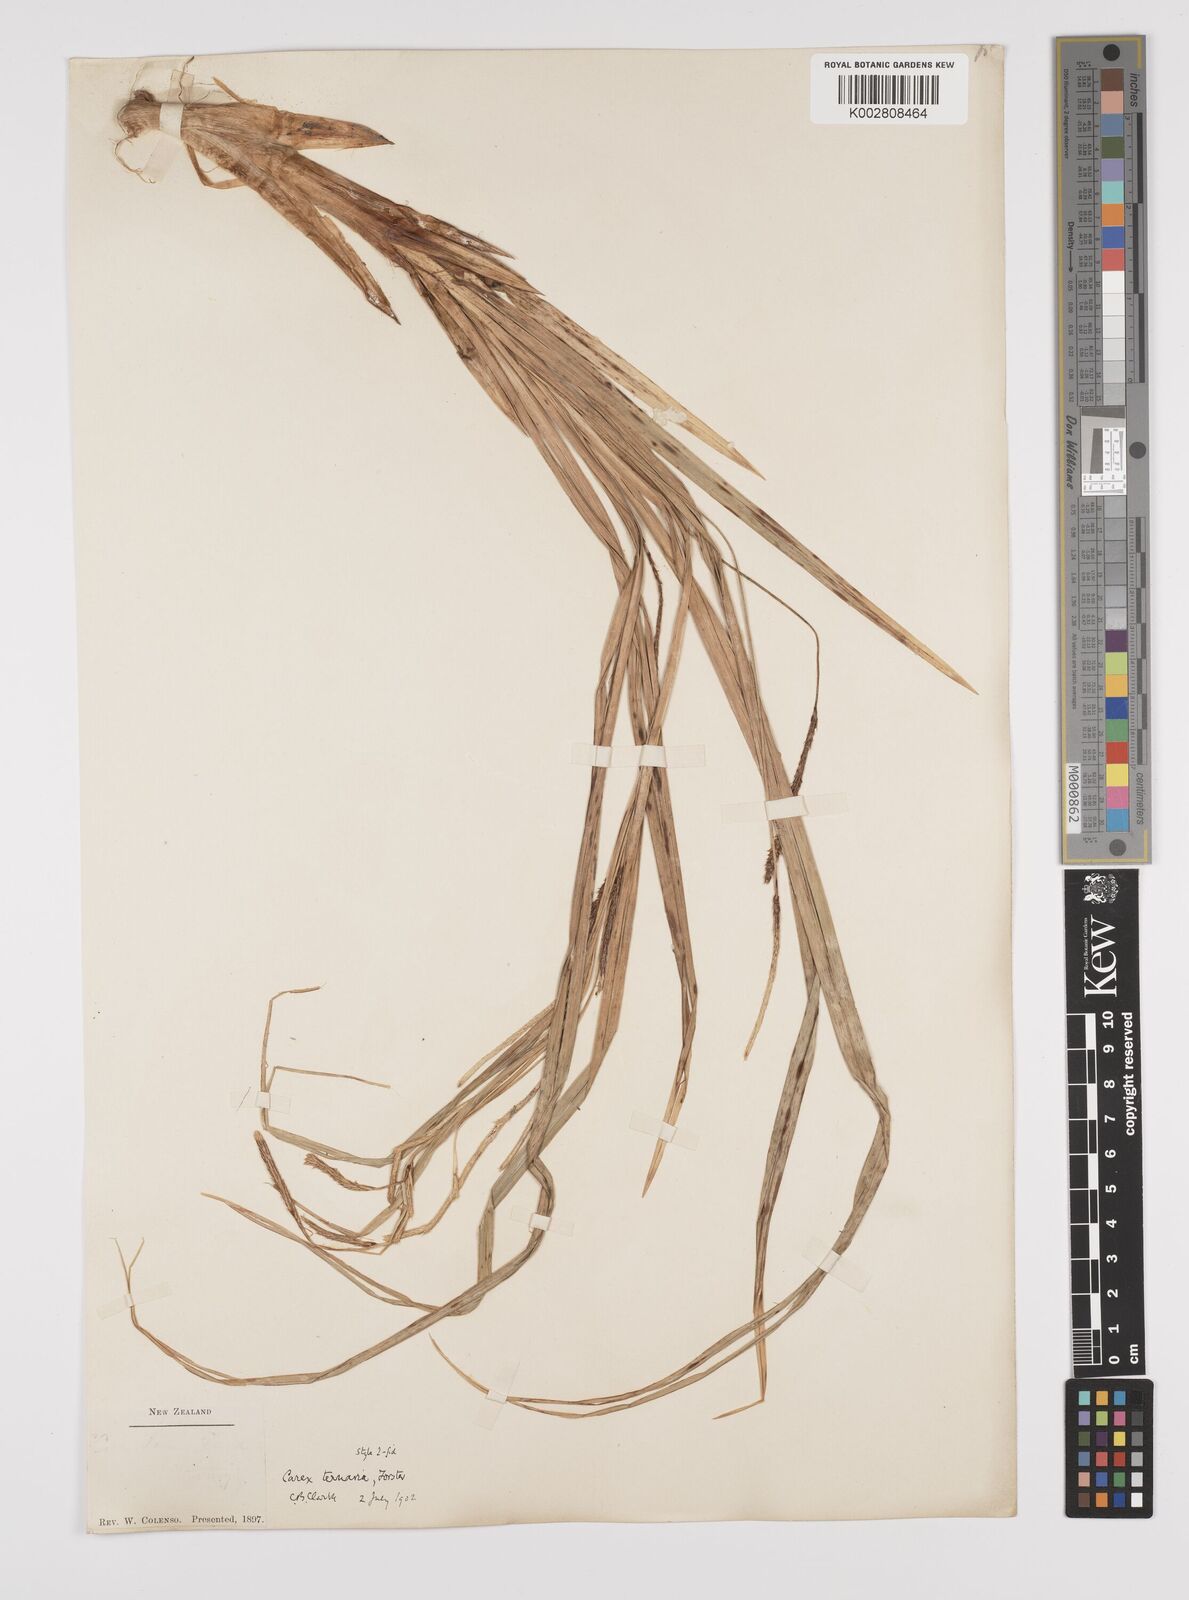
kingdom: Plantae
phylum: Tracheophyta
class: Liliopsida
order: Poales
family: Cyperaceae
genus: Carex
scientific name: Carex coriacea
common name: Rautahi
